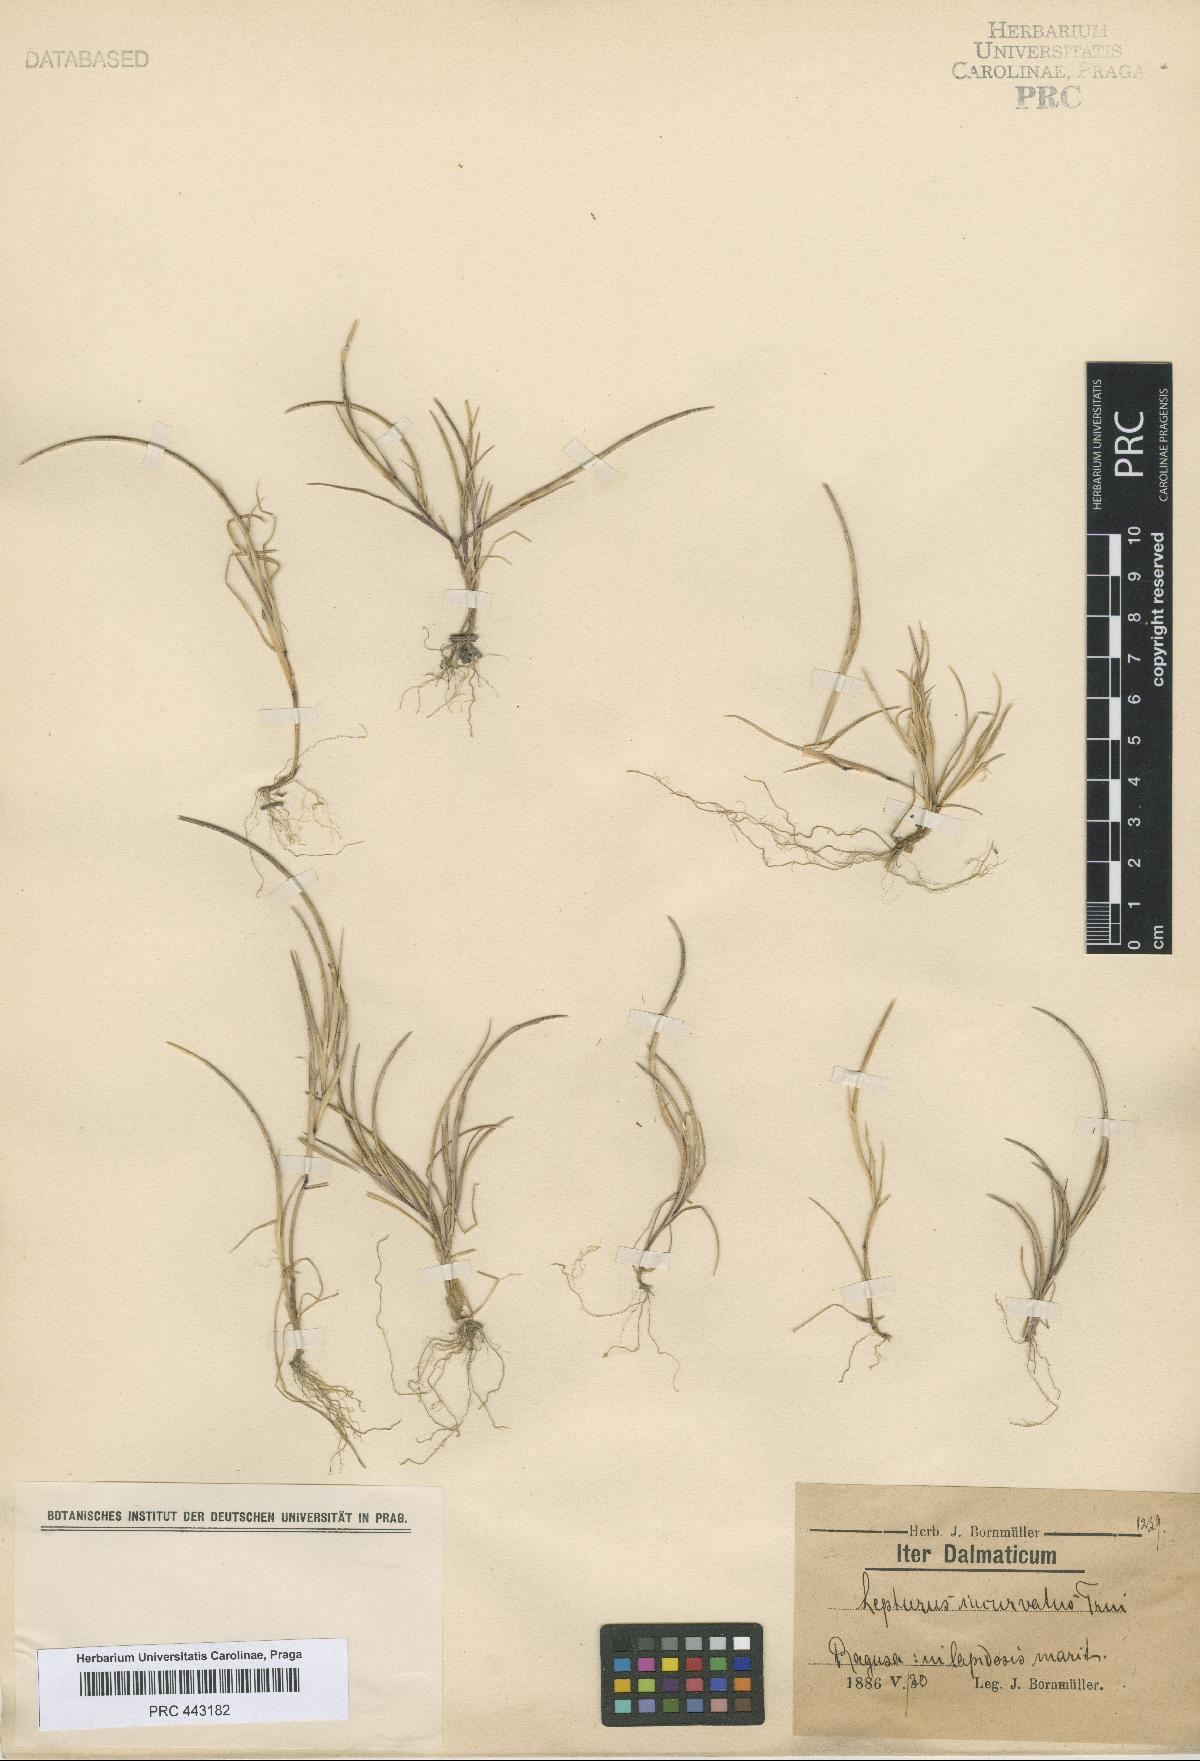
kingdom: Plantae
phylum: Tracheophyta
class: Liliopsida
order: Poales
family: Poaceae
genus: Parapholis
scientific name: Parapholis incurva
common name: Curved sicklegrass
